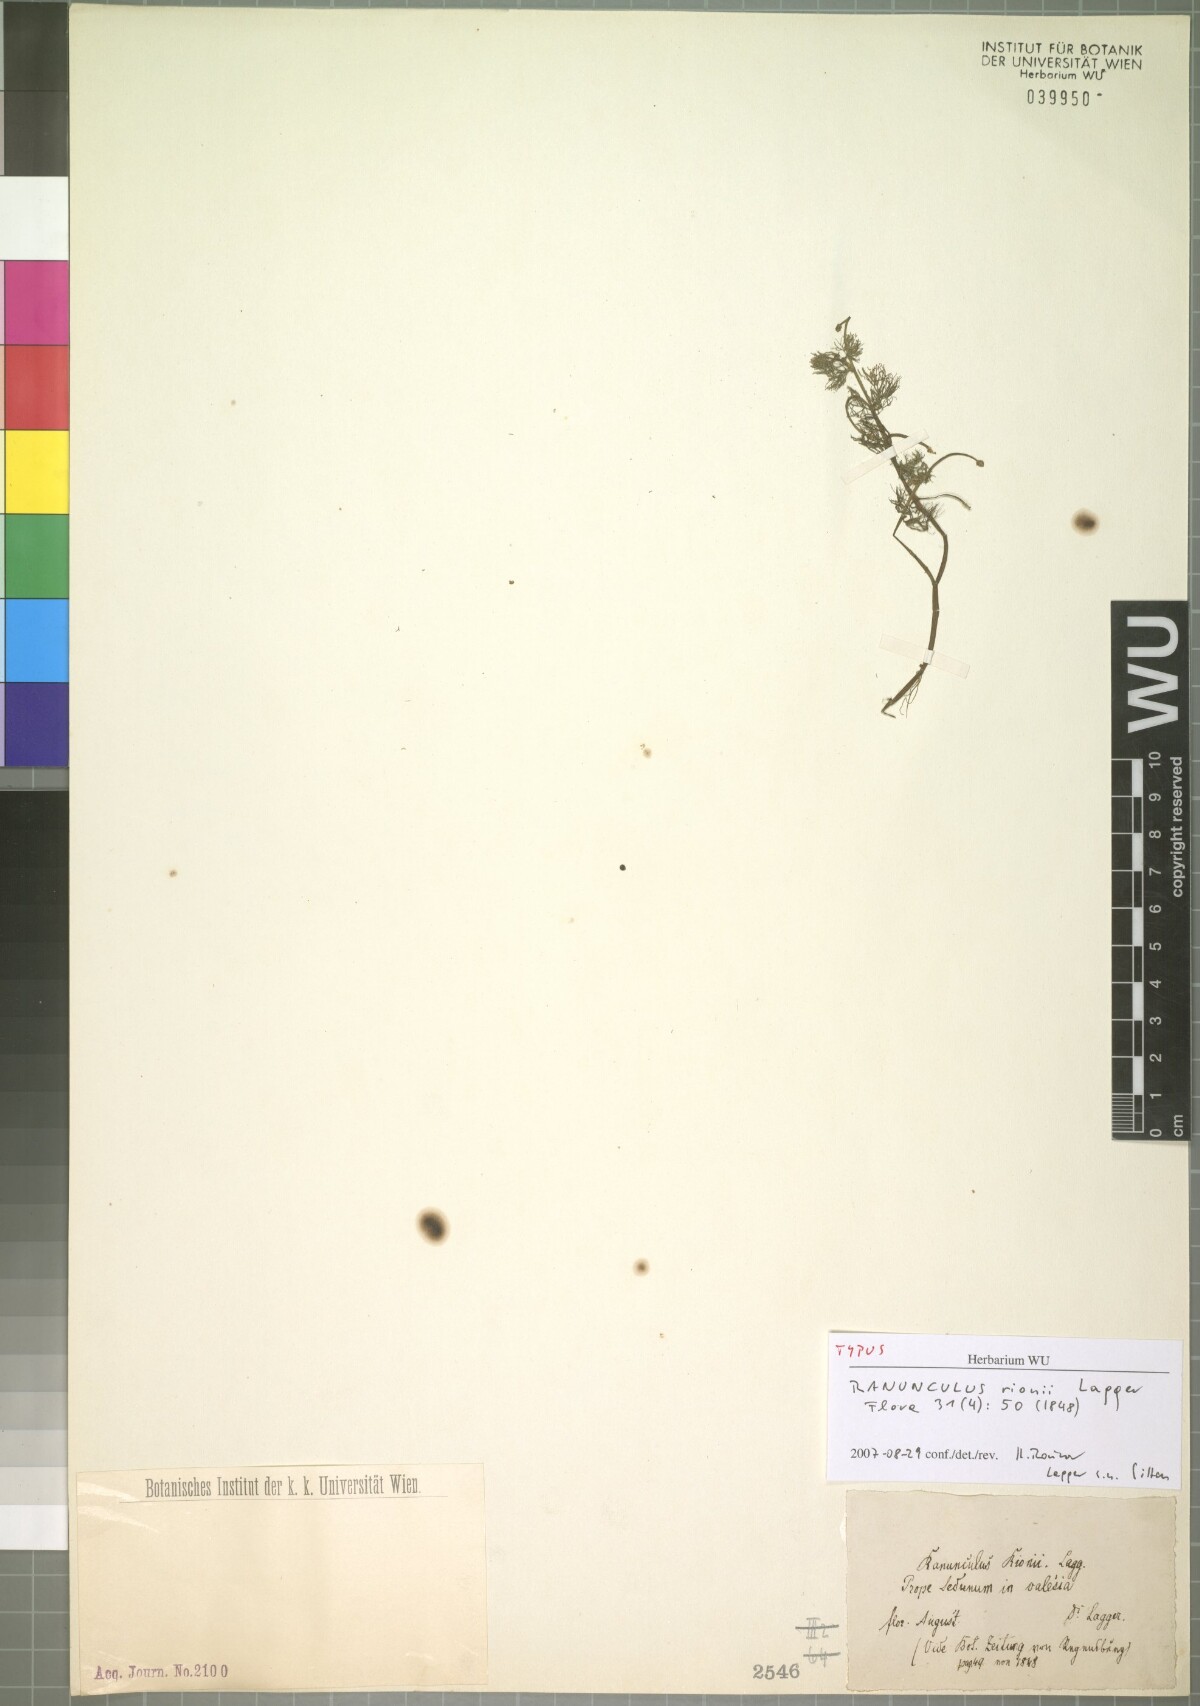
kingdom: Plantae
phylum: Tracheophyta
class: Magnoliopsida
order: Ranunculales
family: Ranunculaceae
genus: Ranunculus
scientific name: Ranunculus rionii
